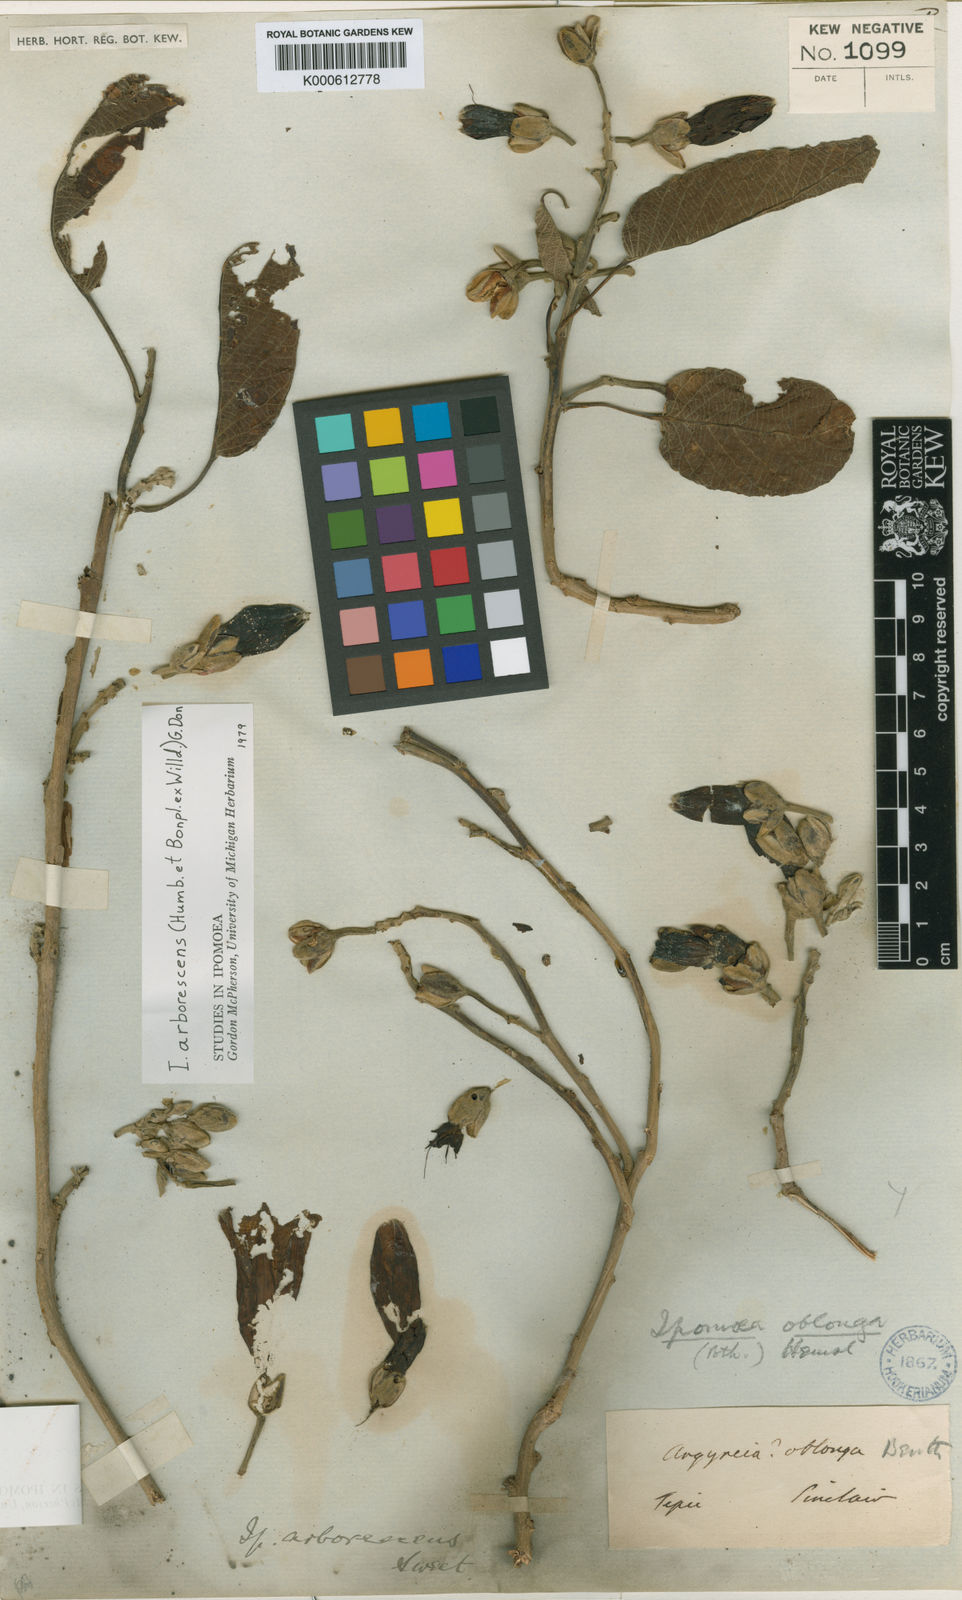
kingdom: Plantae
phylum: Tracheophyta
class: Magnoliopsida
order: Solanales
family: Convolvulaceae
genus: Ipomoea
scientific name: Ipomoea arborescens
